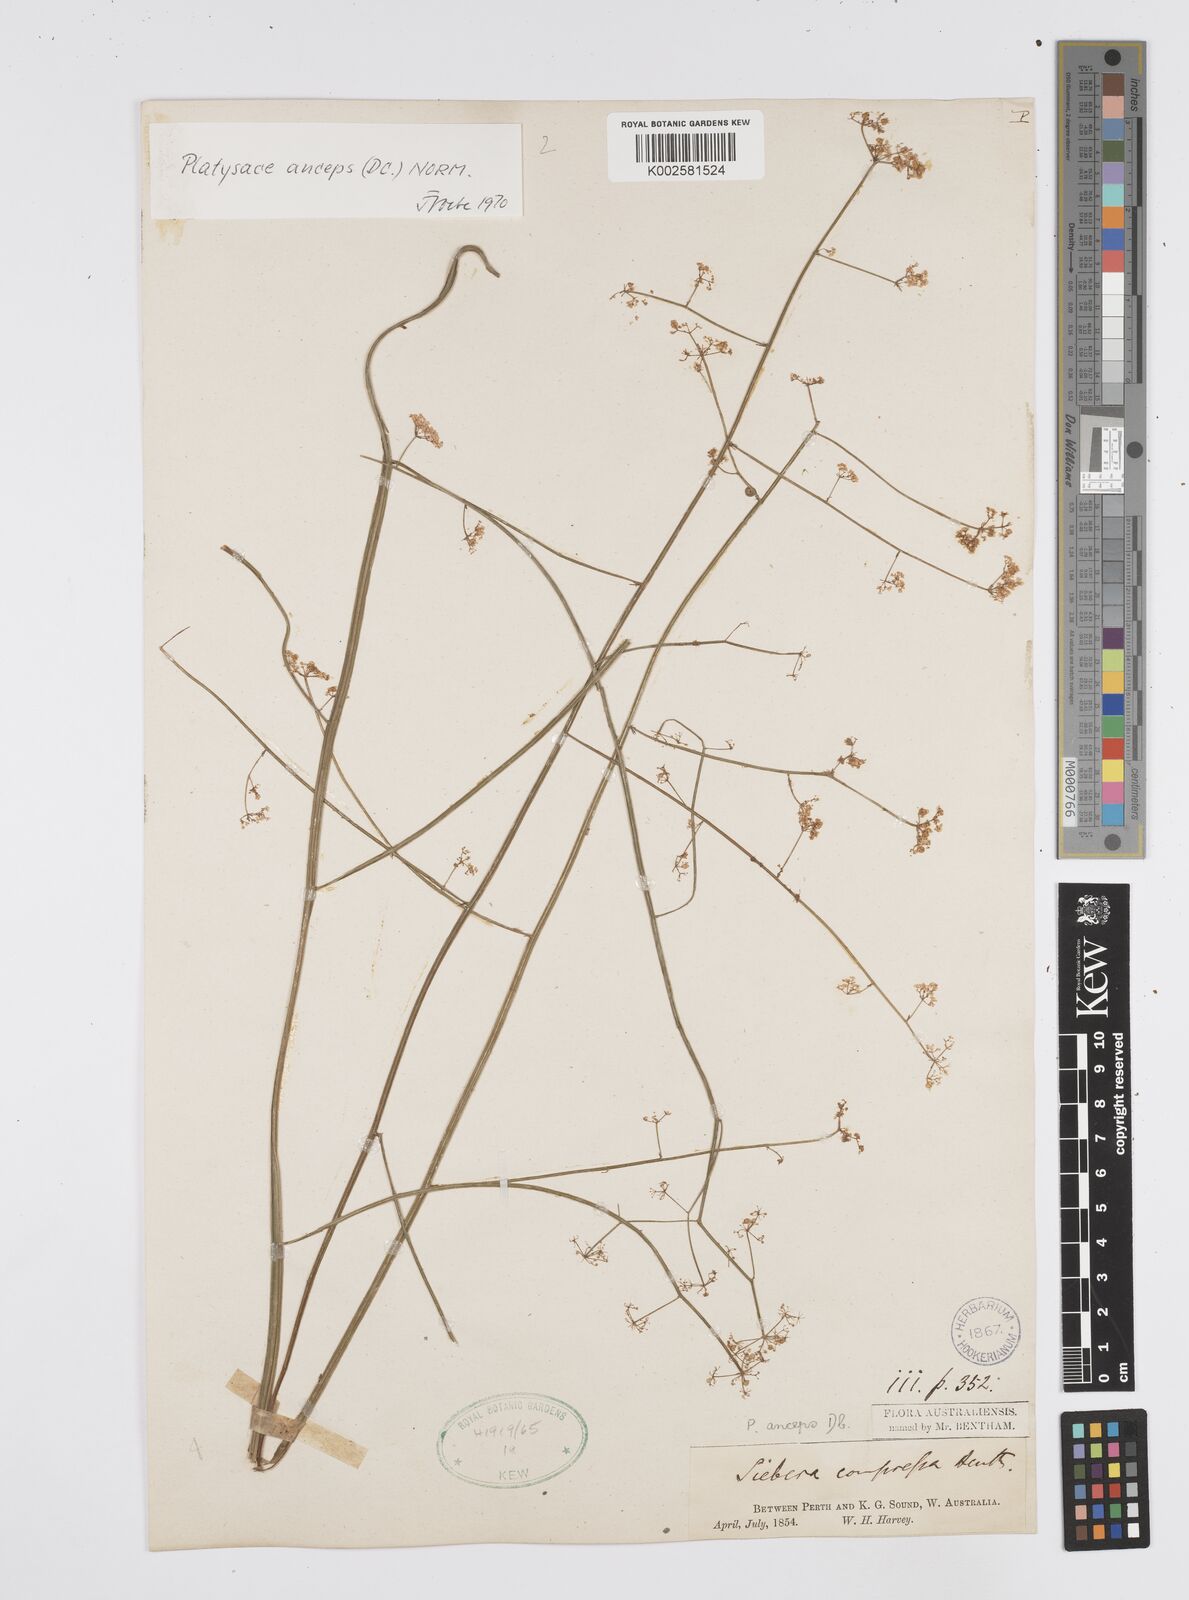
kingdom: Plantae
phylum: Tracheophyta
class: Magnoliopsida
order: Apiales
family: Apiaceae
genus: Centella
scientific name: Centella
